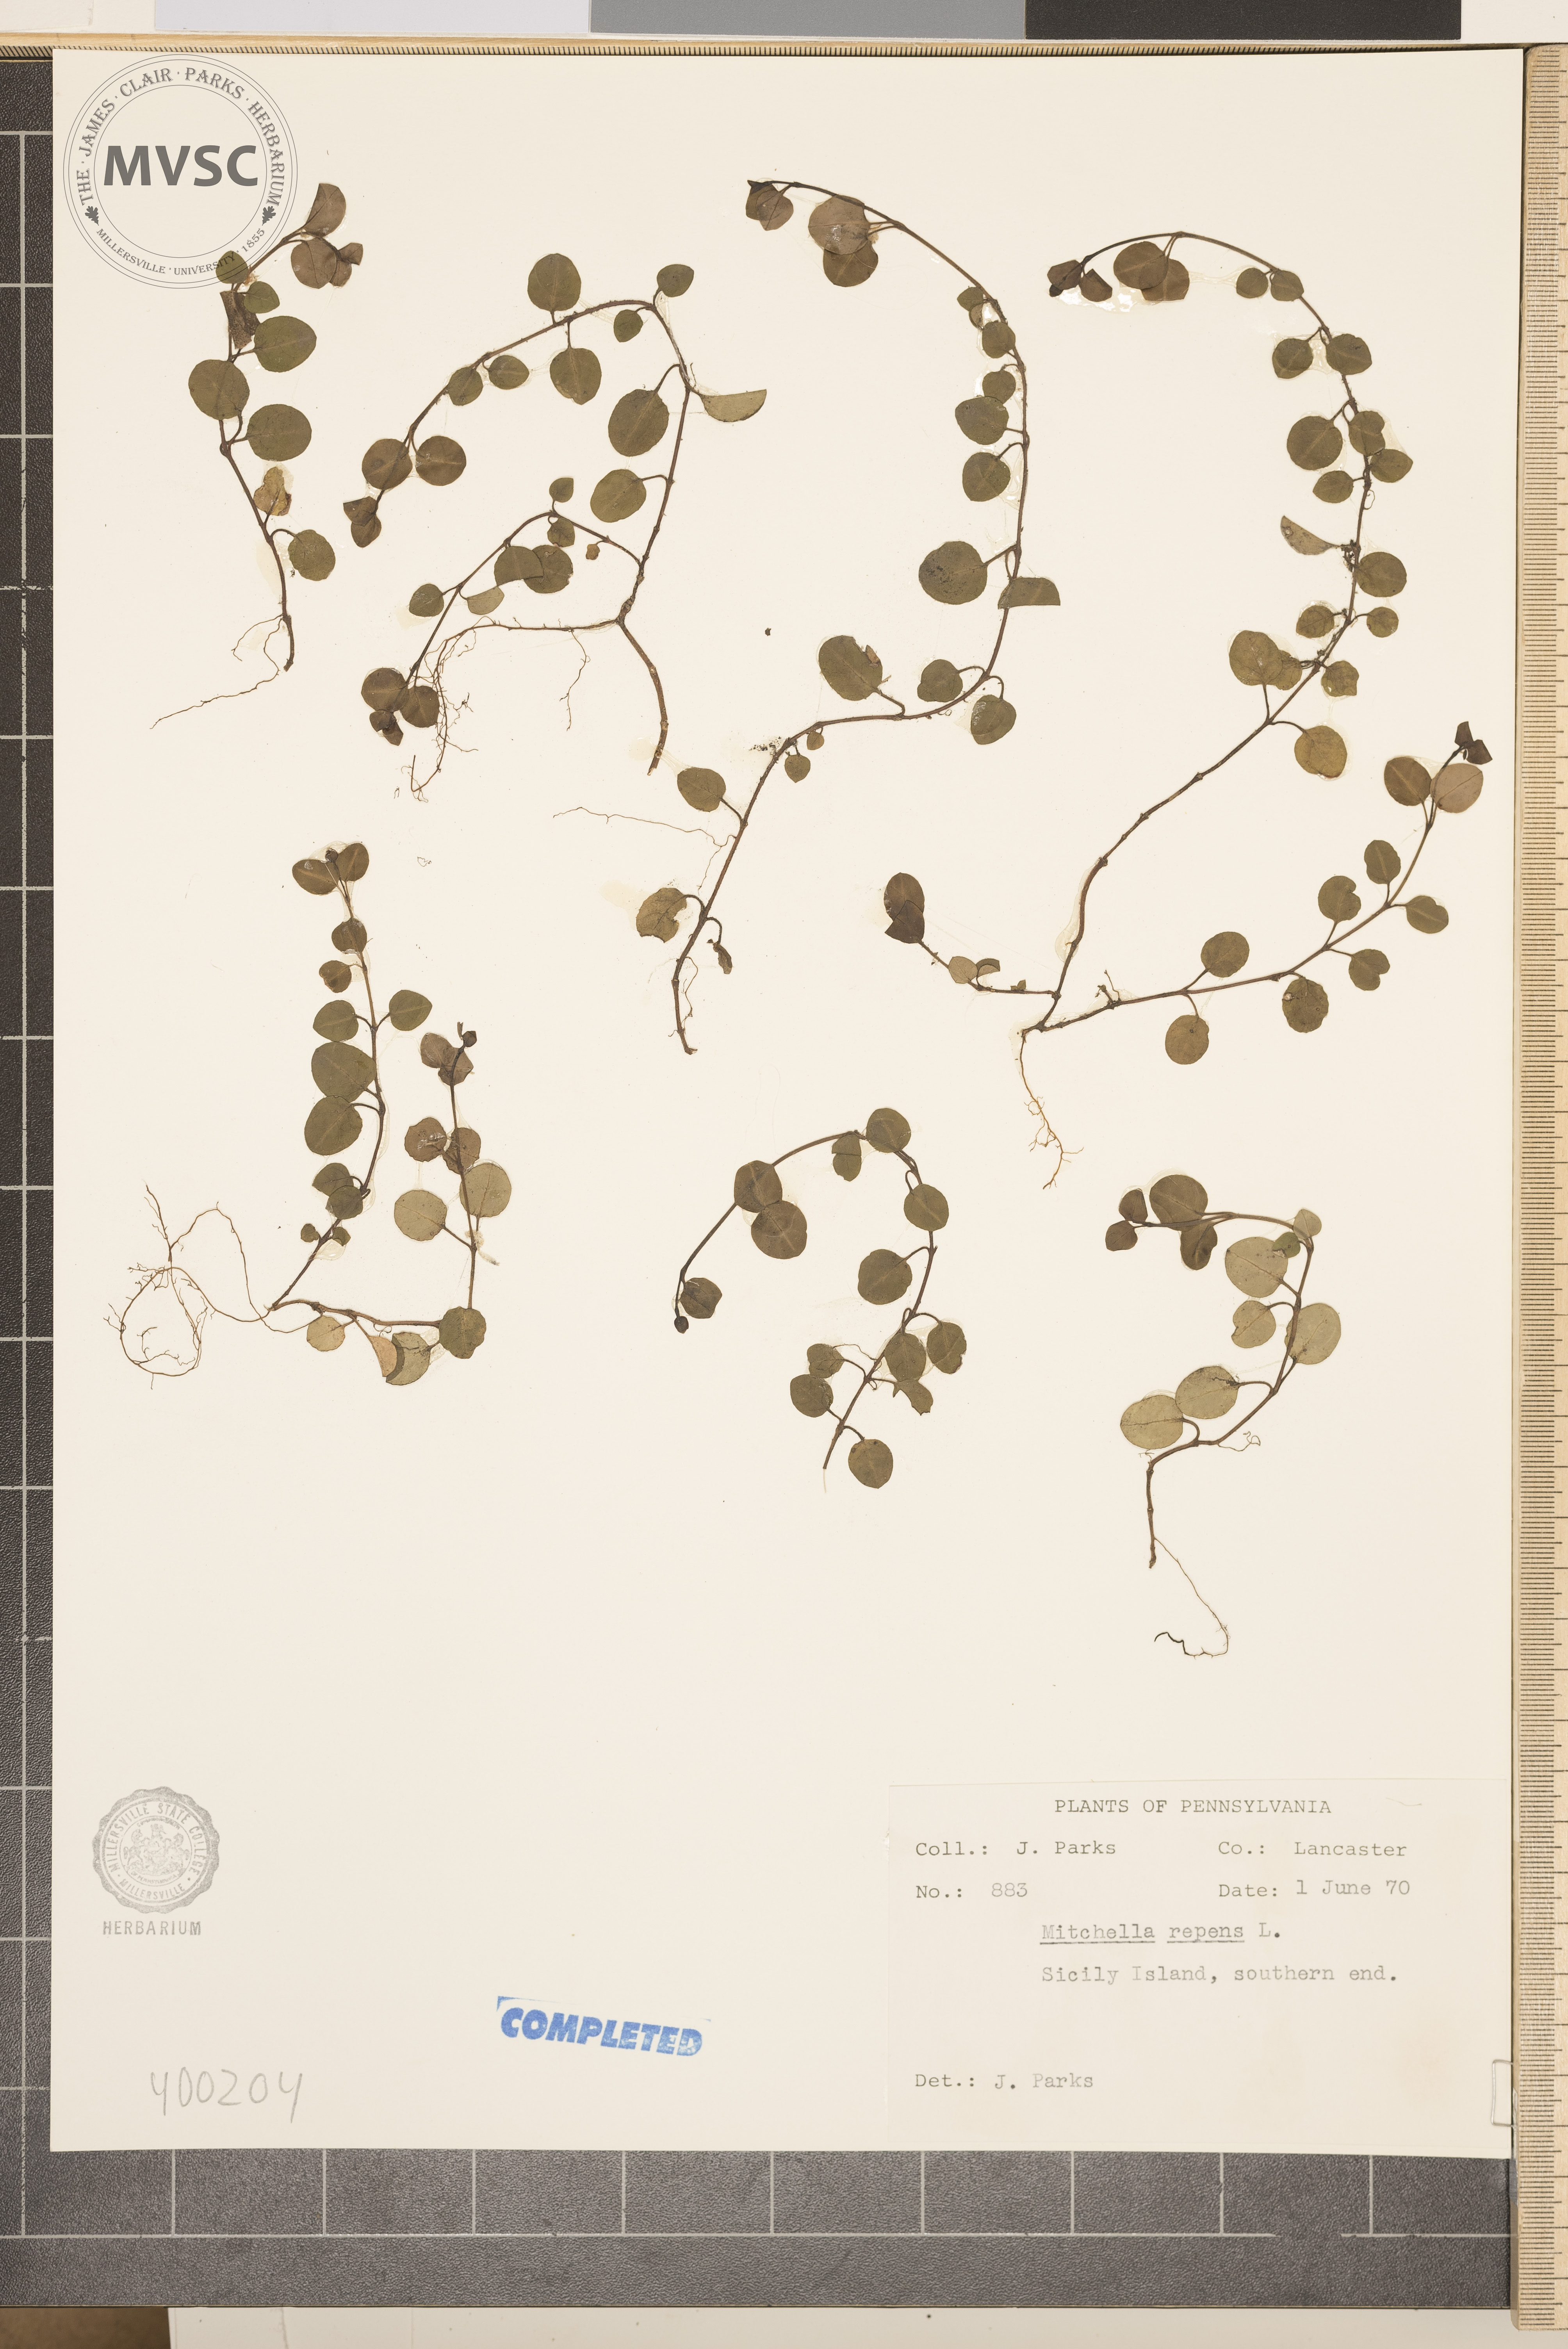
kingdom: Plantae
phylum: Tracheophyta
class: Magnoliopsida
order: Gentianales
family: Rubiaceae
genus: Mitchella
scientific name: Mitchella repens
